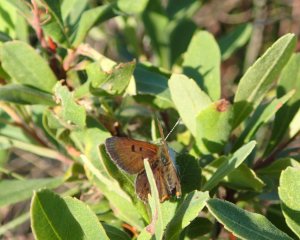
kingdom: Animalia
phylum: Arthropoda
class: Insecta
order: Lepidoptera
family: Sesiidae
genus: Sesia
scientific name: Sesia Lycaena epixanthe
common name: Bog Copper
